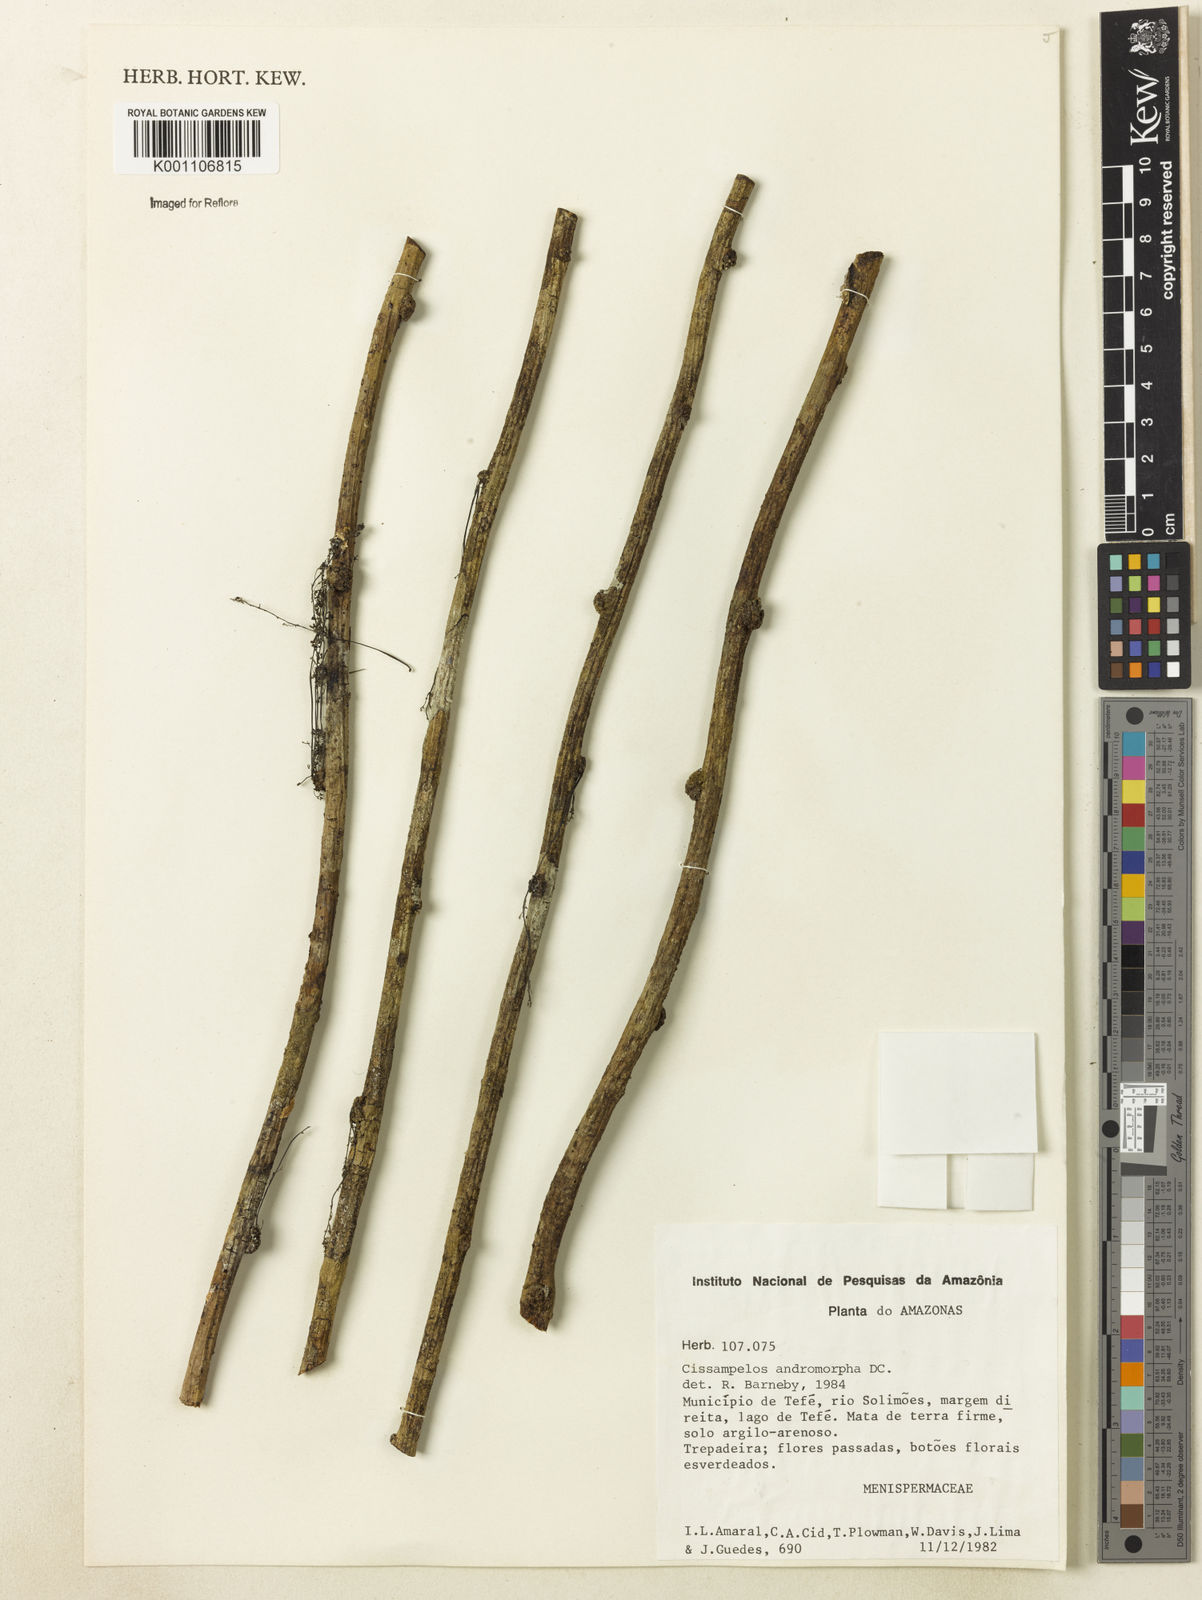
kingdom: Plantae
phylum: Tracheophyta
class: Magnoliopsida
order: Ranunculales
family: Menispermaceae
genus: Cissampelos
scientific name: Cissampelos andromorpha
